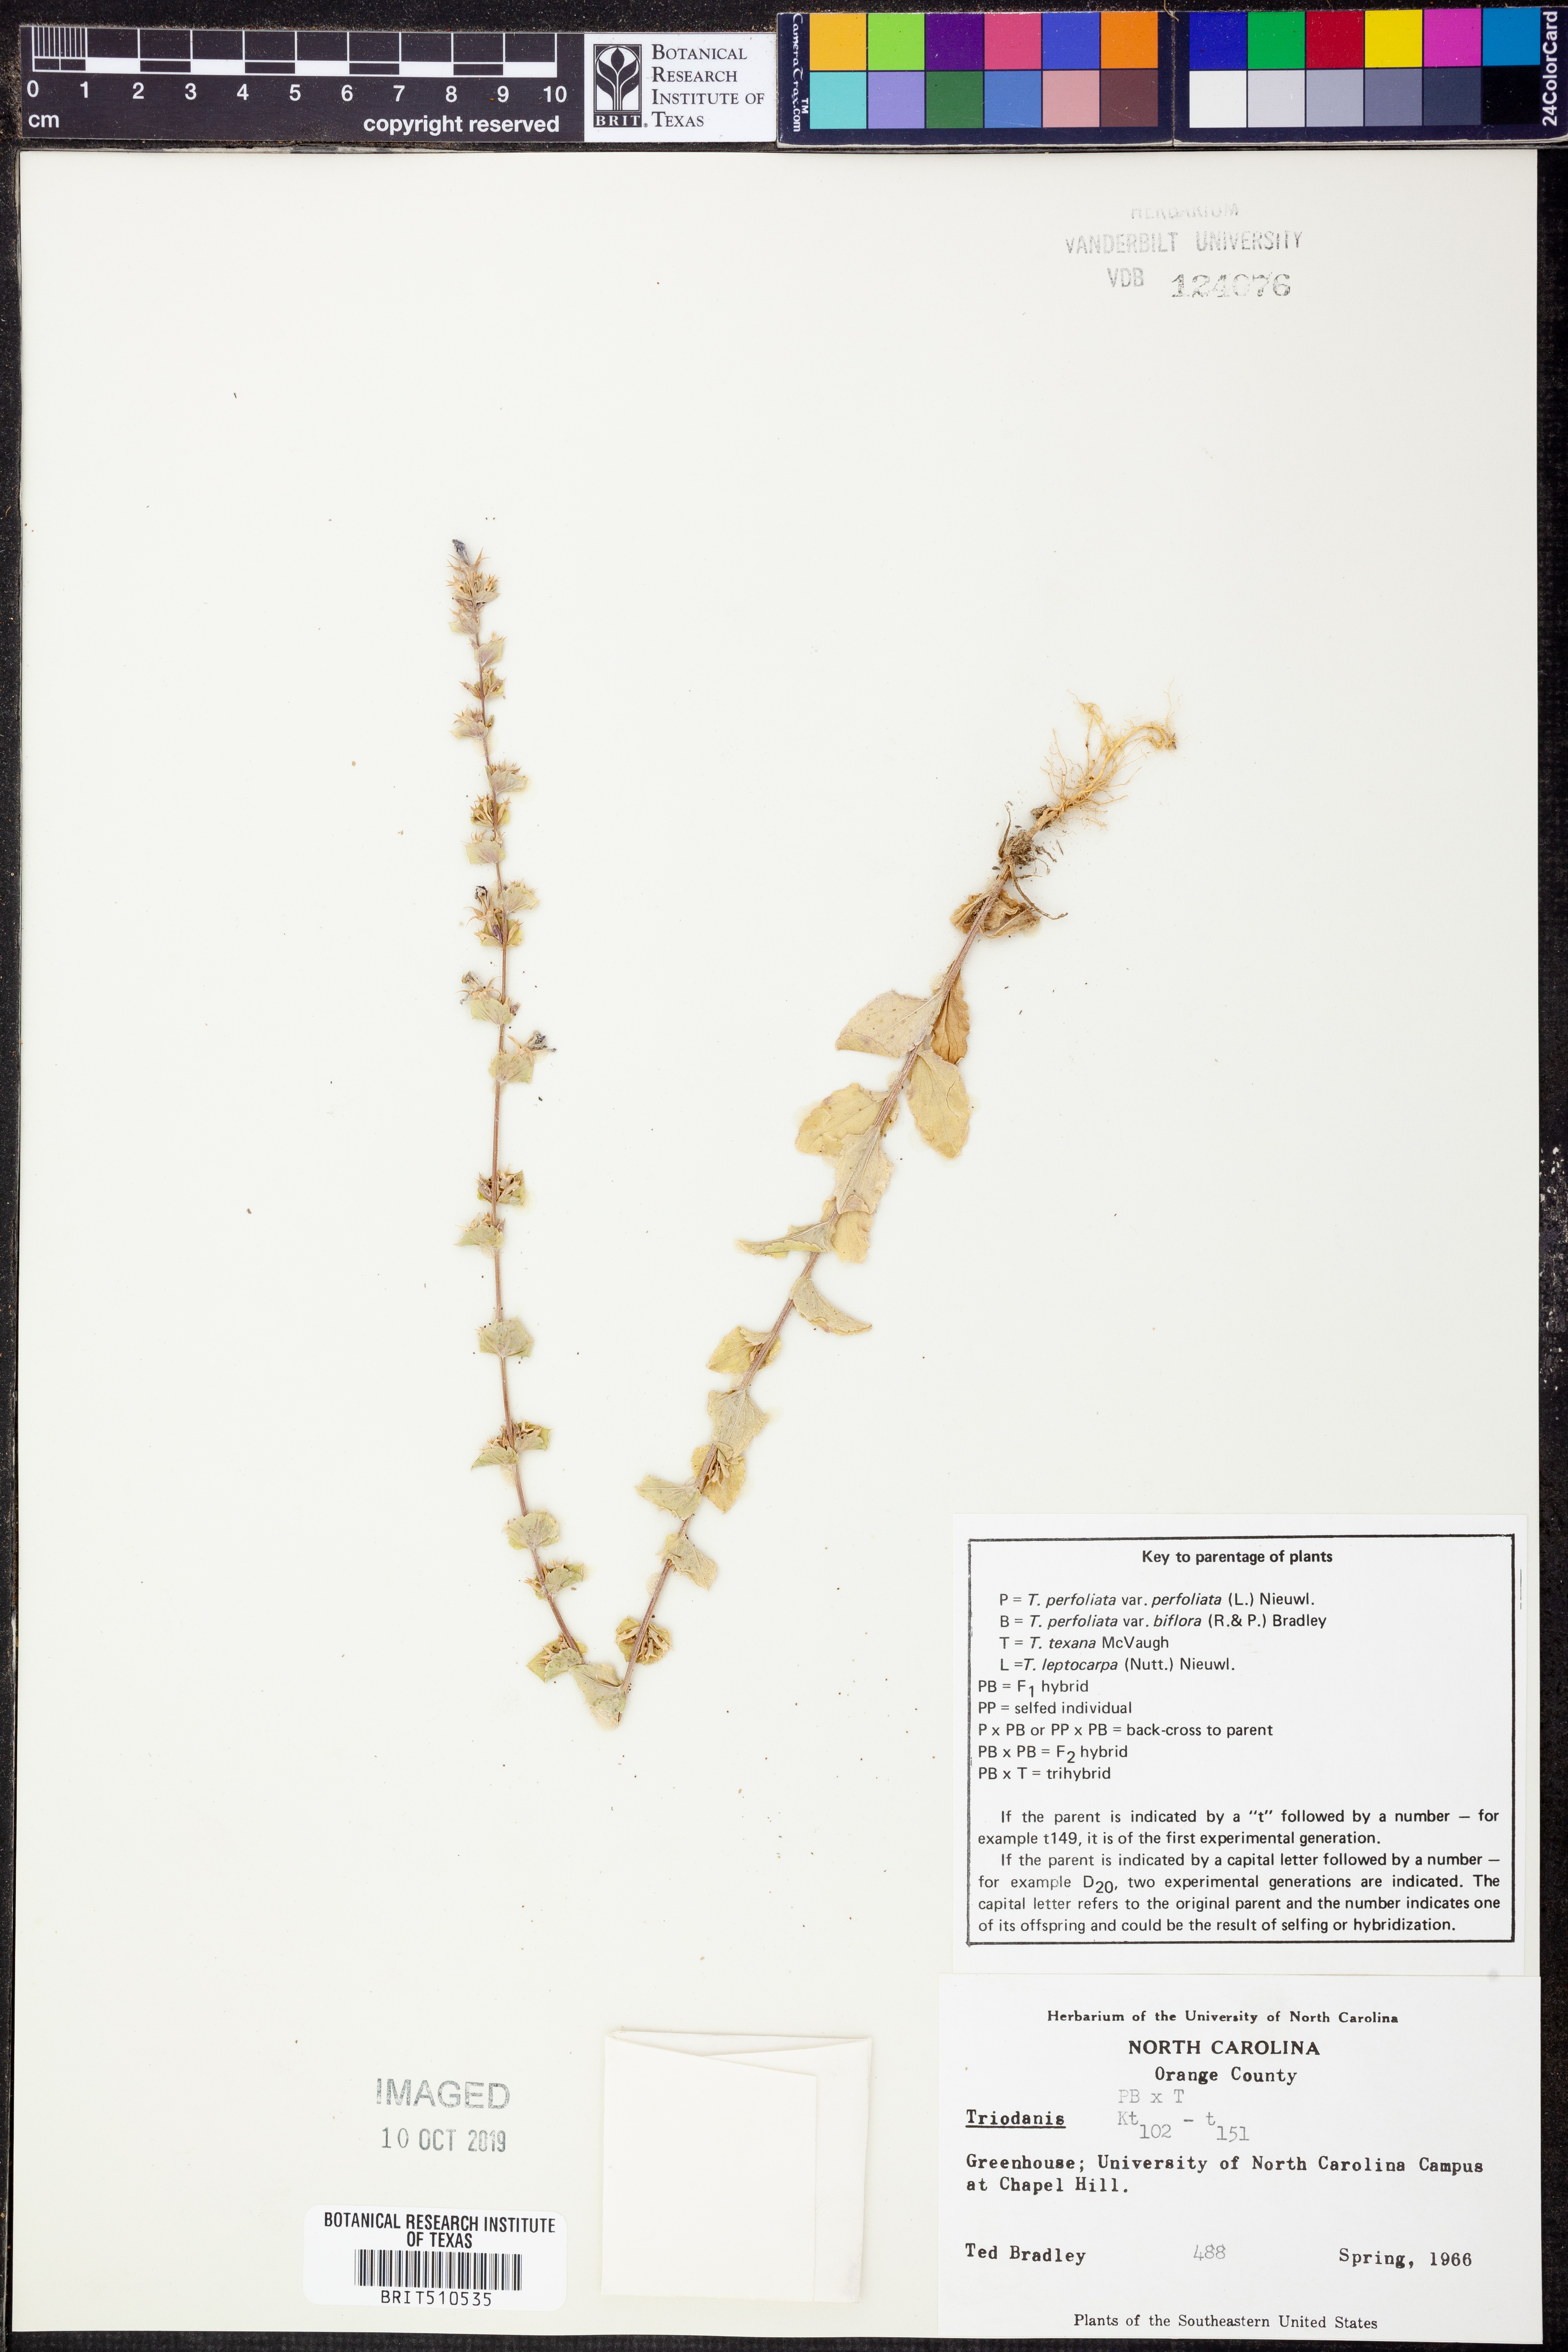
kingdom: Plantae
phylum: Tracheophyta
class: Magnoliopsida
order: Asterales
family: Campanulaceae
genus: Triodanis
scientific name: Triodanis
